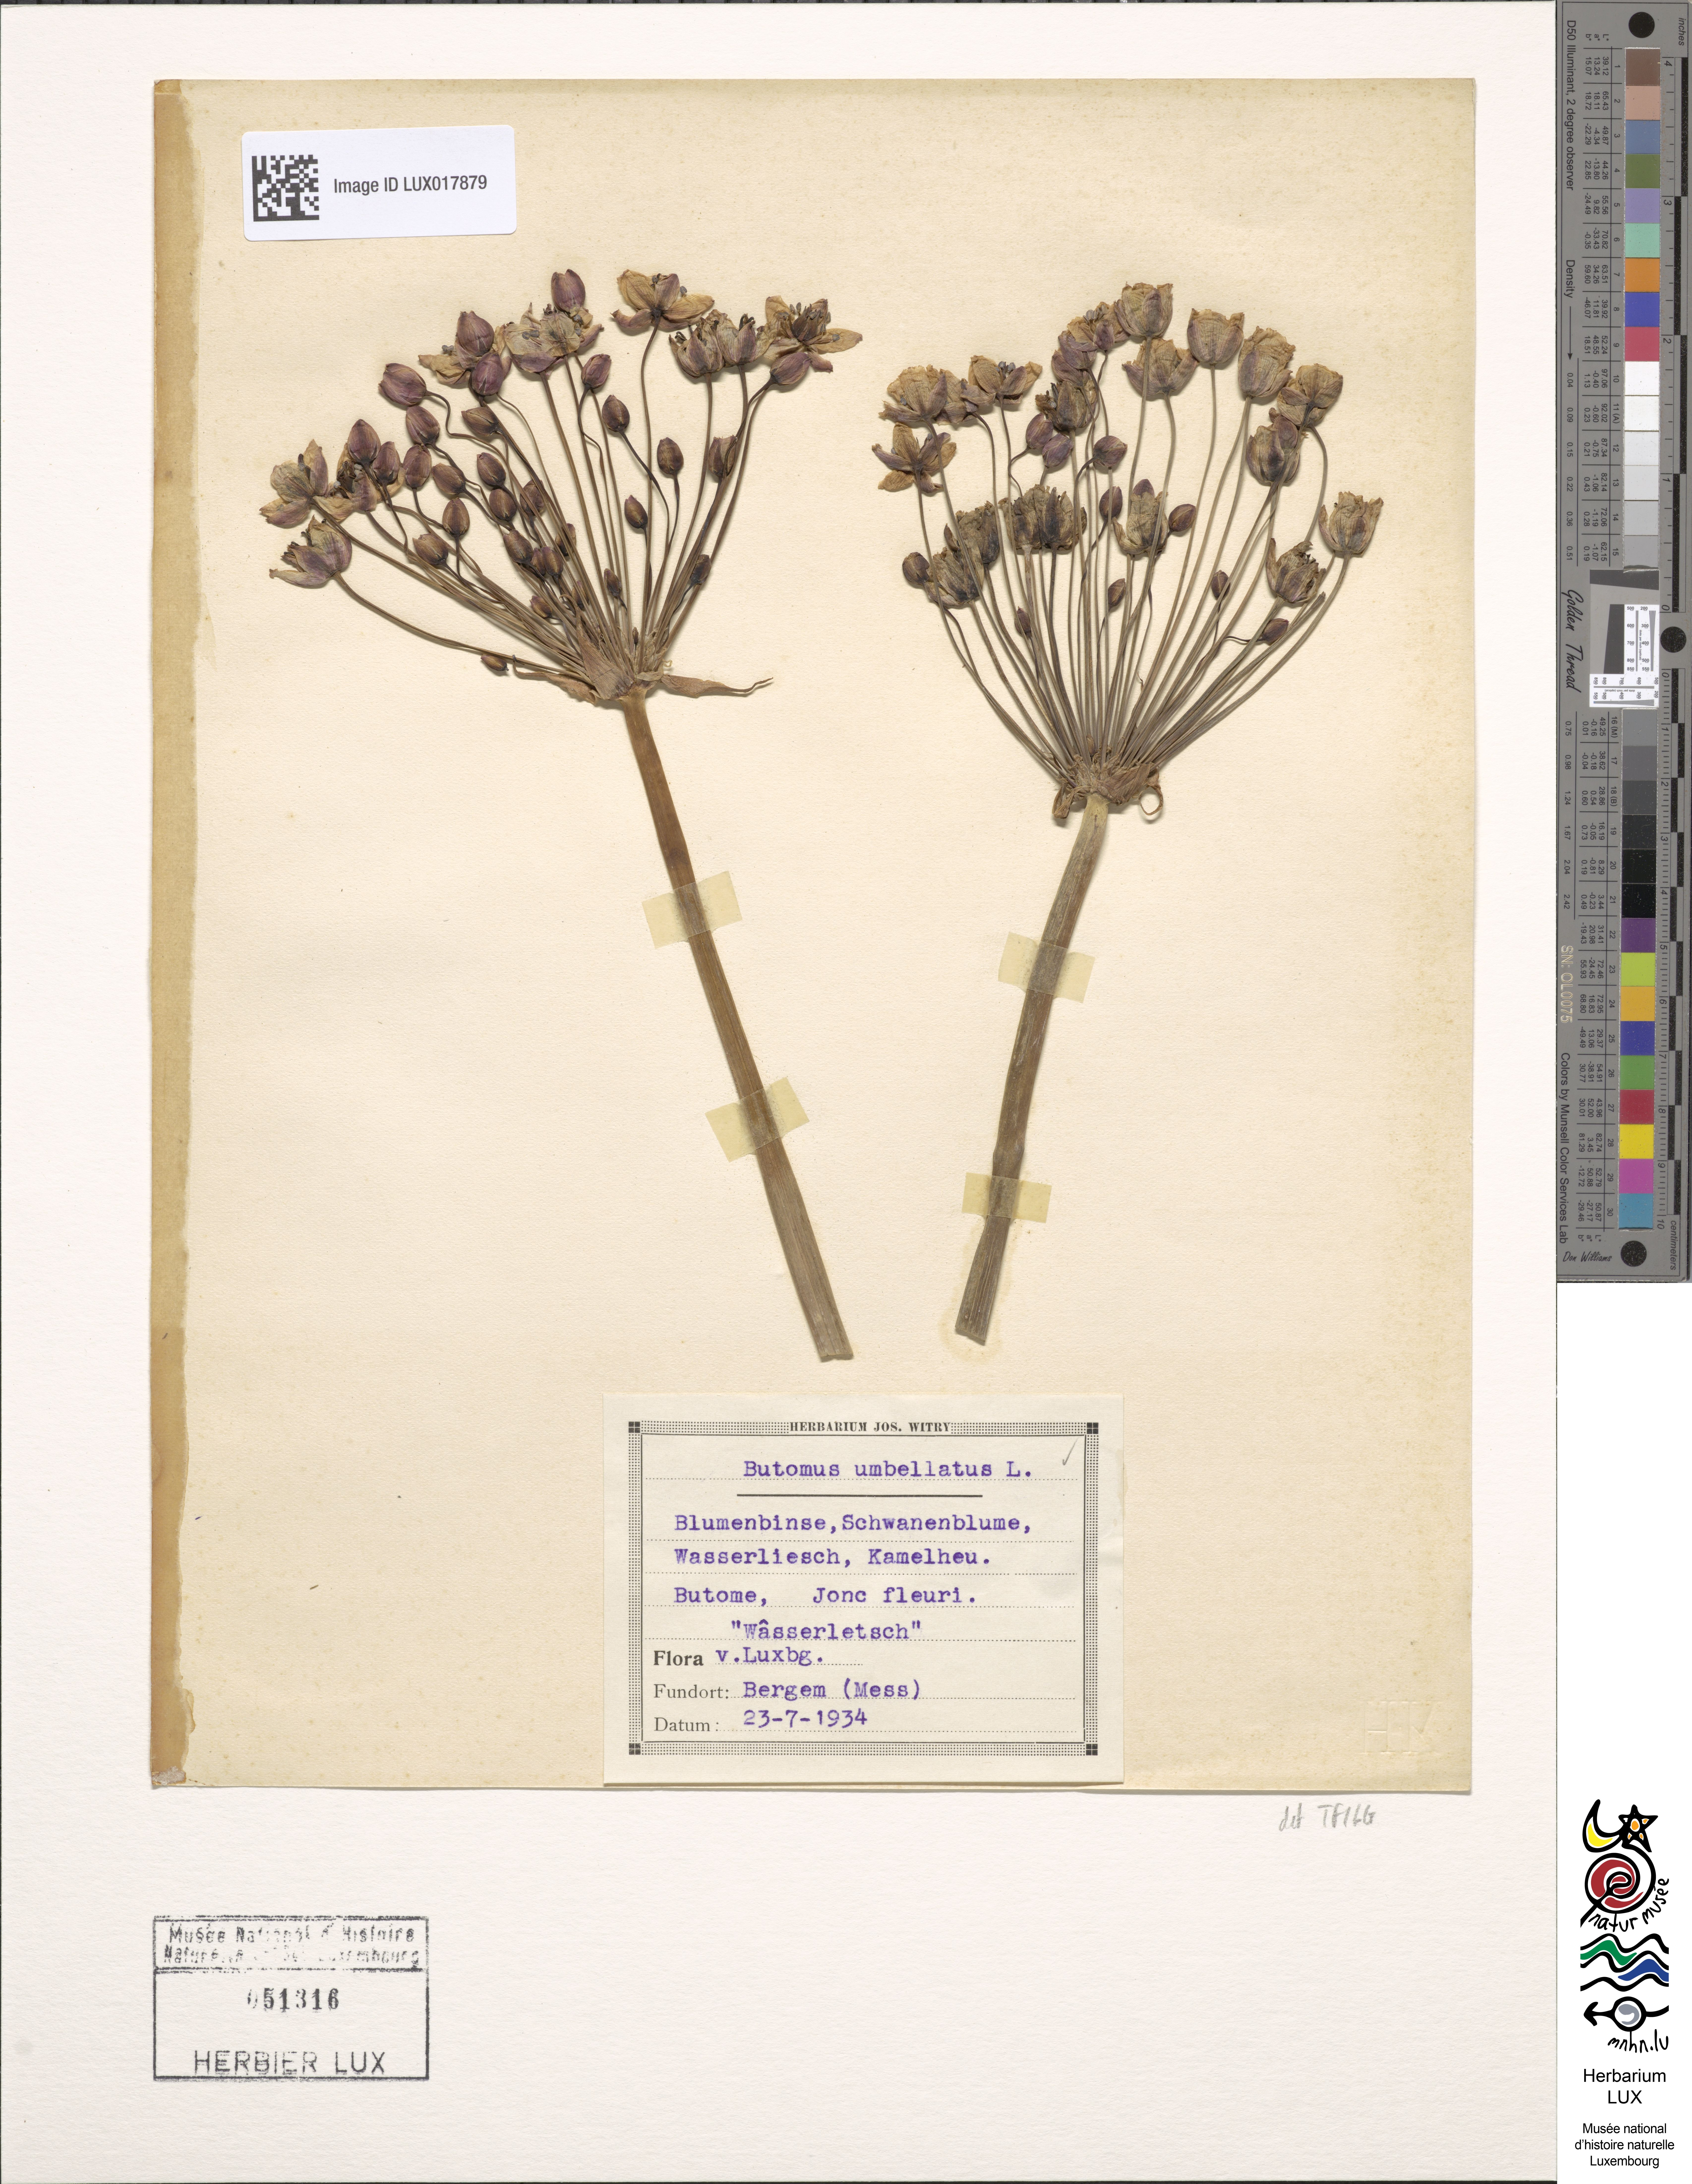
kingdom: Plantae
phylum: Tracheophyta
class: Liliopsida
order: Alismatales
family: Butomaceae
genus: Butomus
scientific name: Butomus umbellatus
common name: Flowering-rush
